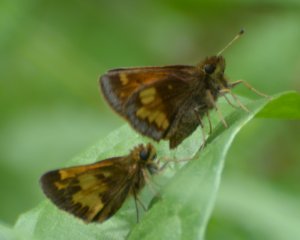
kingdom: Animalia
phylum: Arthropoda
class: Insecta
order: Lepidoptera
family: Hesperiidae
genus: Lon
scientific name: Lon hobomok
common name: Hobomok Skipper
